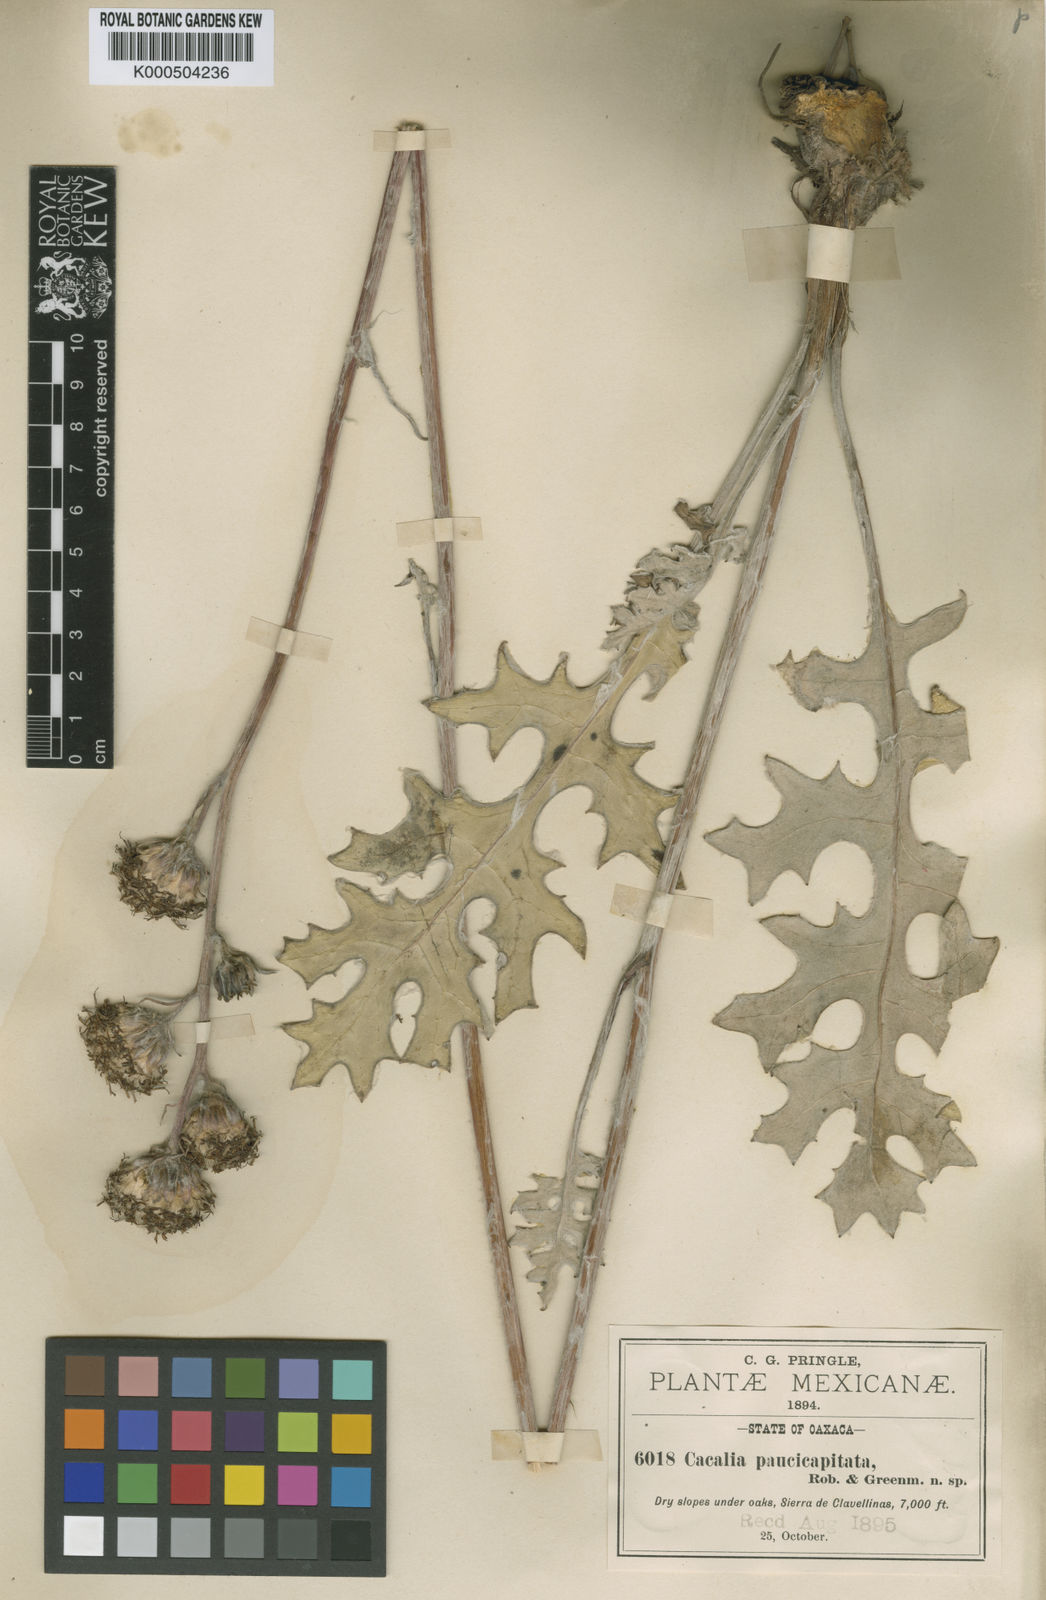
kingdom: Plantae
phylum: Tracheophyta
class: Magnoliopsida
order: Asterales
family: Asteraceae
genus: Psacalium
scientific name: Psacalium paucicapitatum
